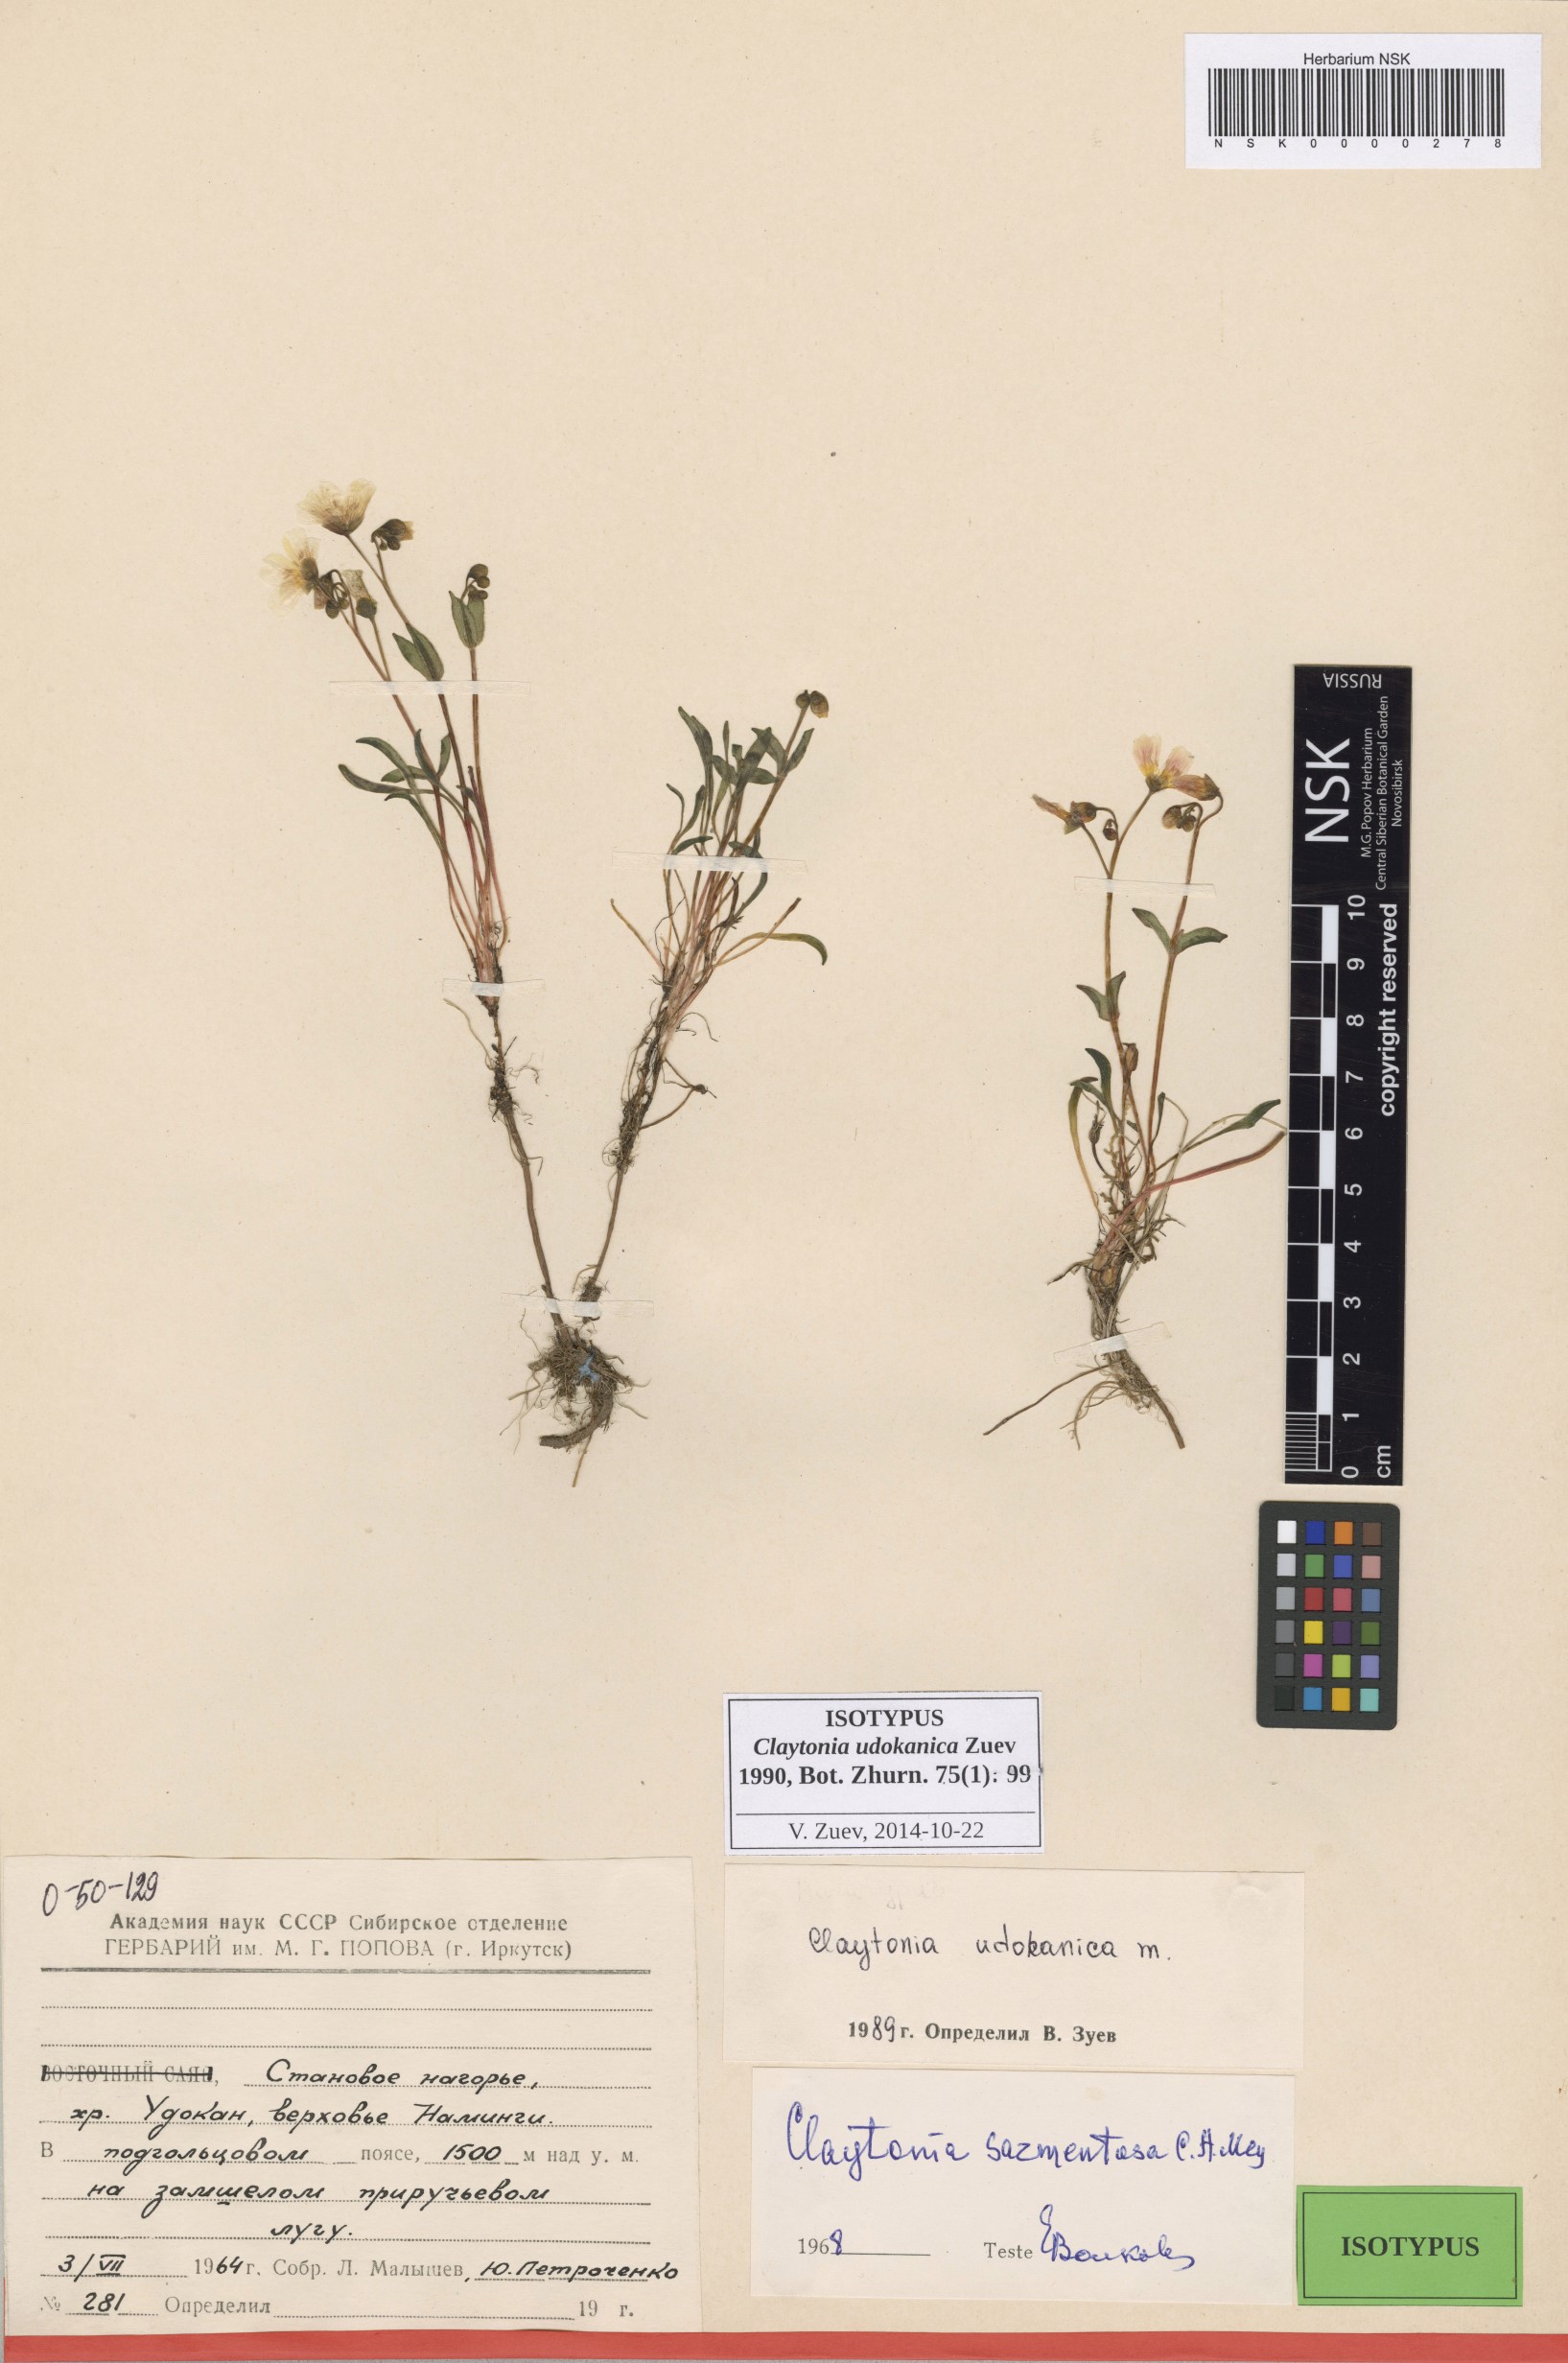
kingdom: Plantae
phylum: Tracheophyta
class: Magnoliopsida
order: Caryophyllales
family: Montiaceae
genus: Claytonia
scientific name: Claytonia udokanica
